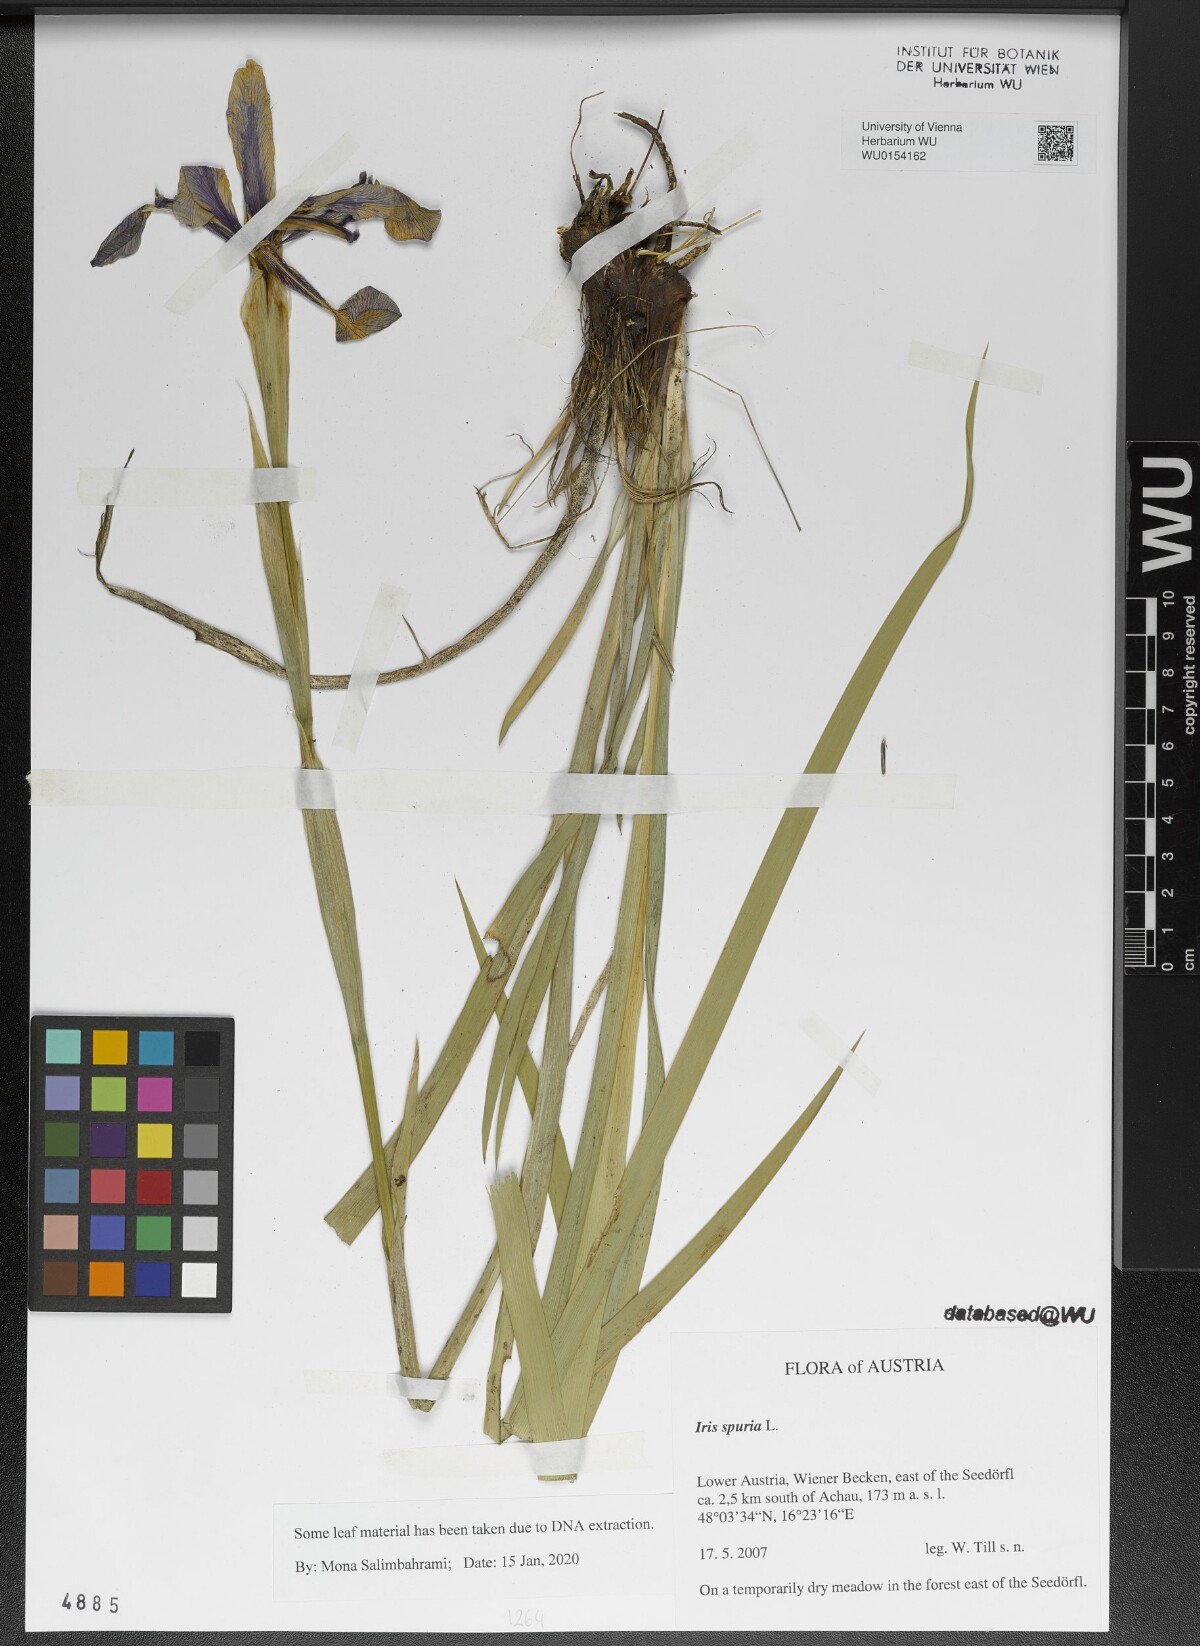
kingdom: Plantae
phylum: Tracheophyta
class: Liliopsida
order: Asparagales
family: Iridaceae
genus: Iris
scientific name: Iris spuria
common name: Blue iris
